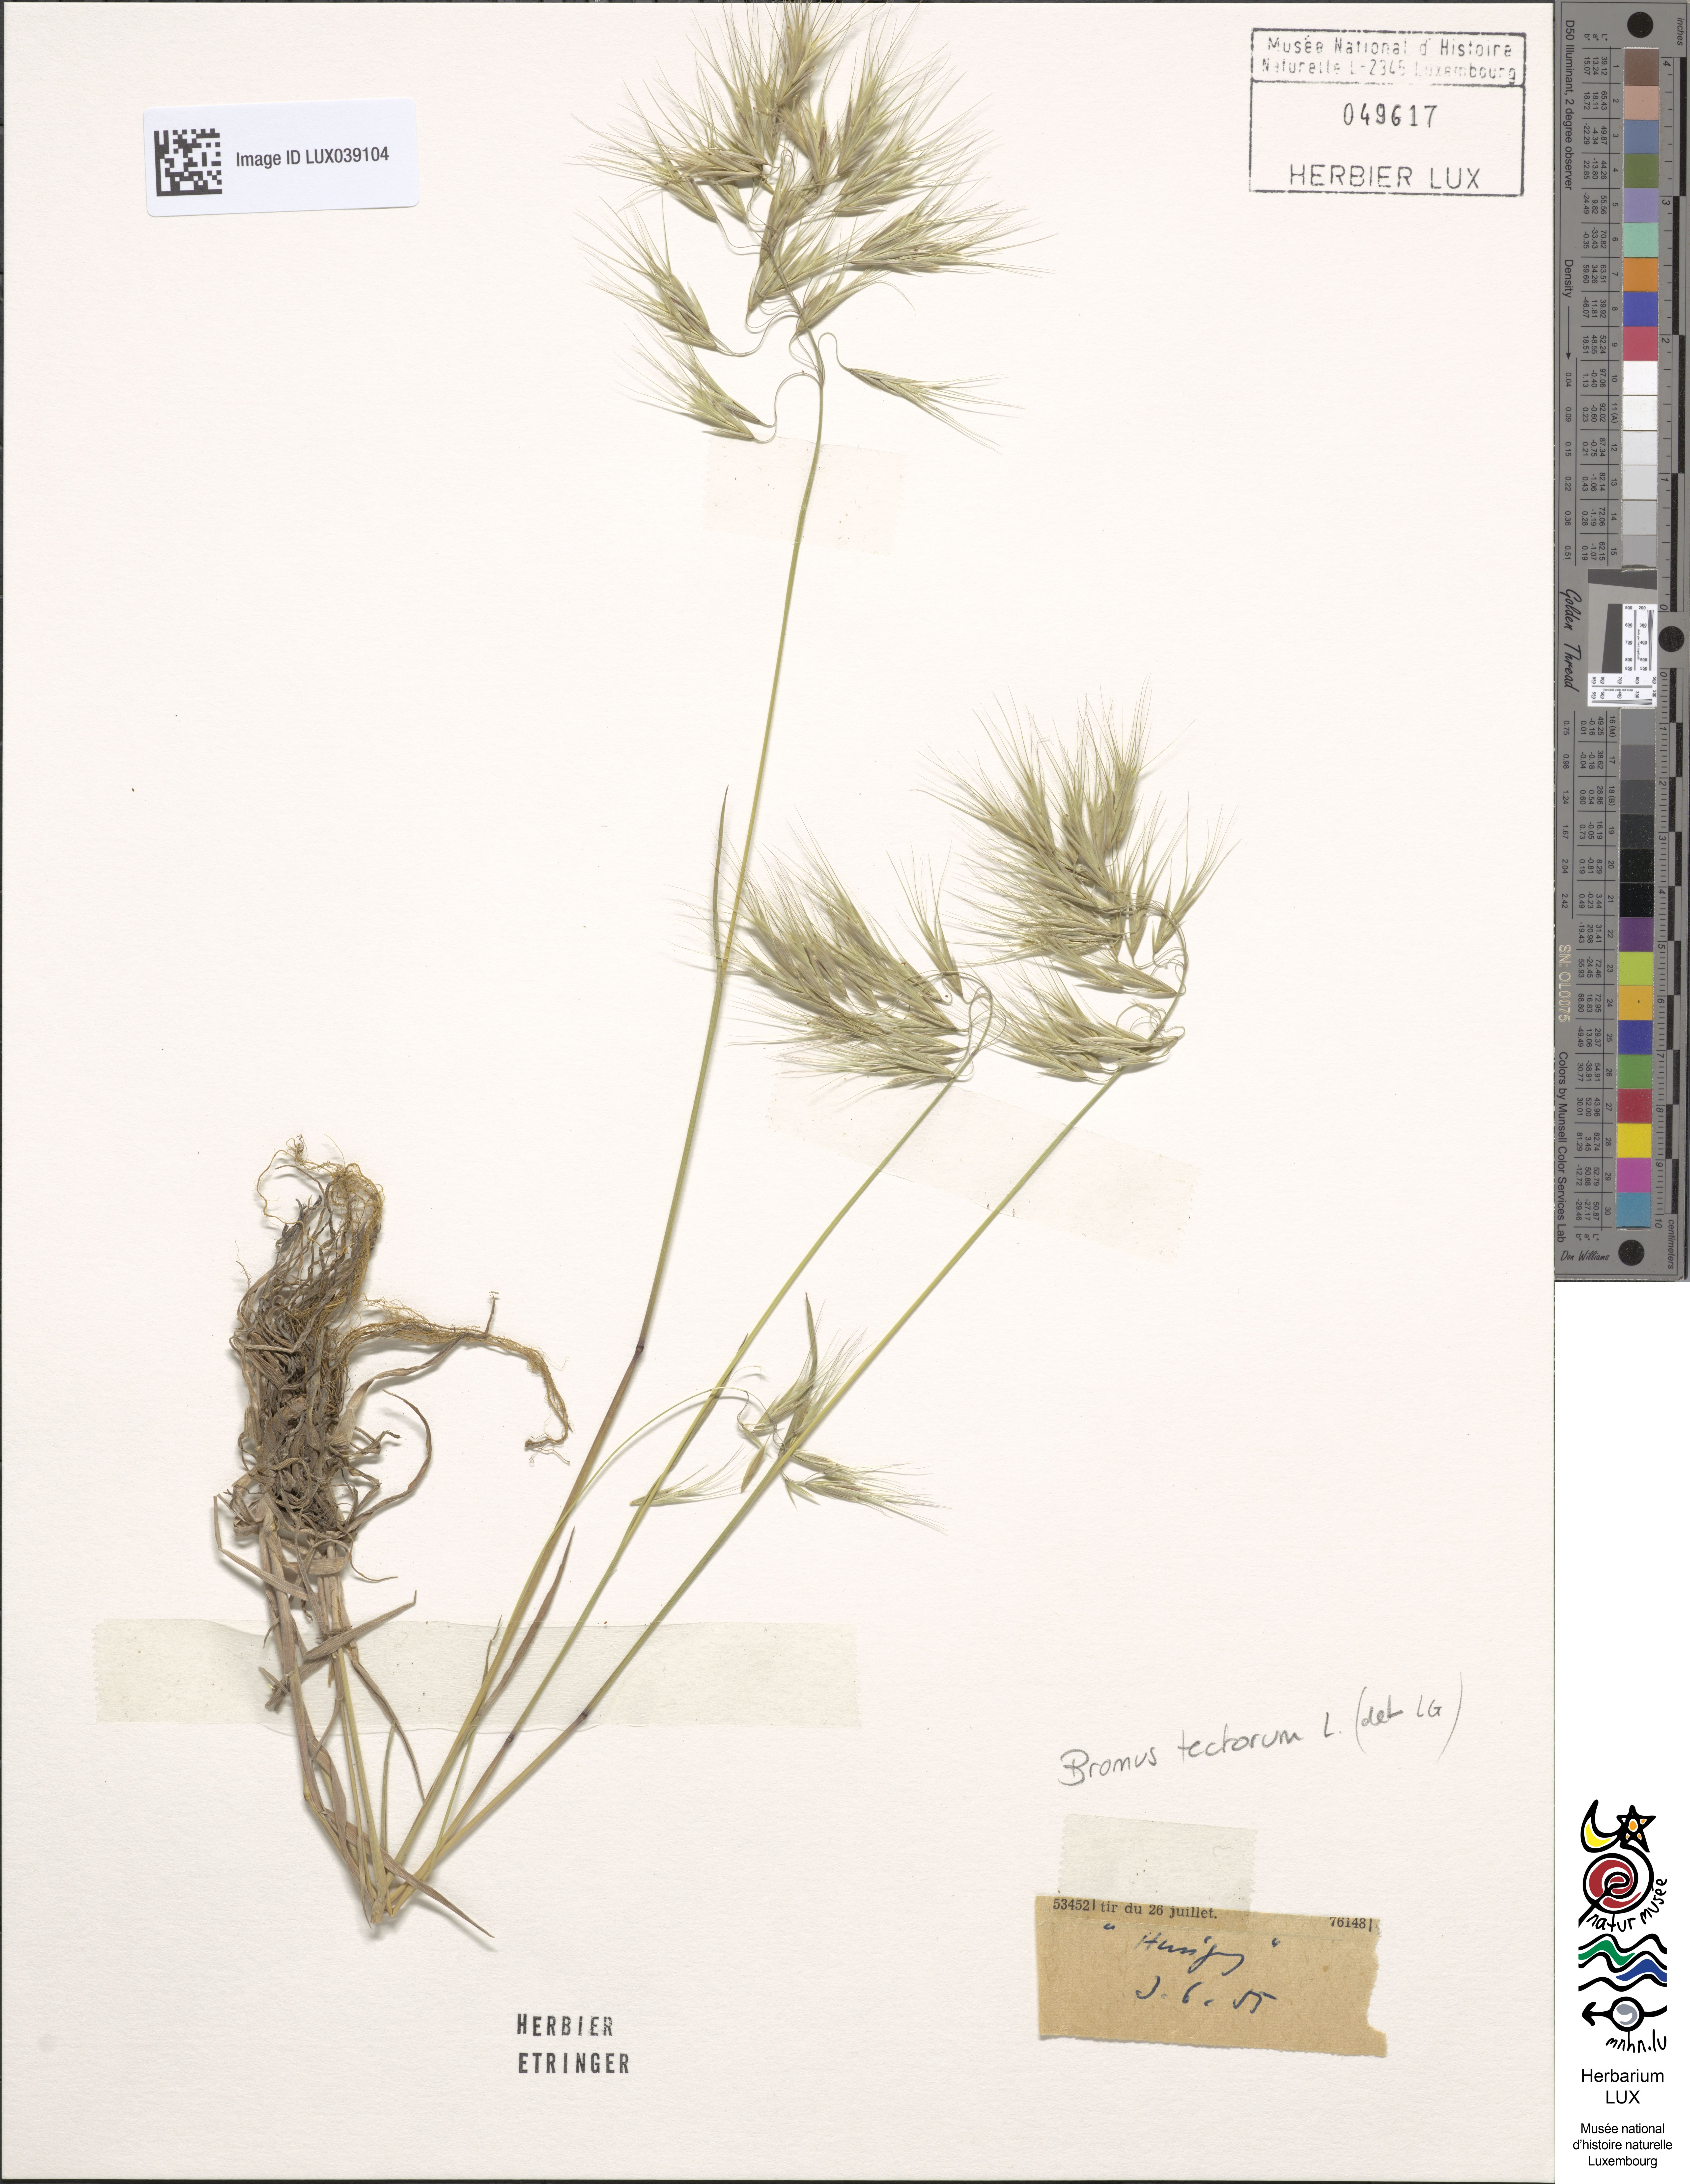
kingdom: Plantae
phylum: Tracheophyta
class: Liliopsida
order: Poales
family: Poaceae
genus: Bromus
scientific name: Bromus tectorum
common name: Cheatgrass
